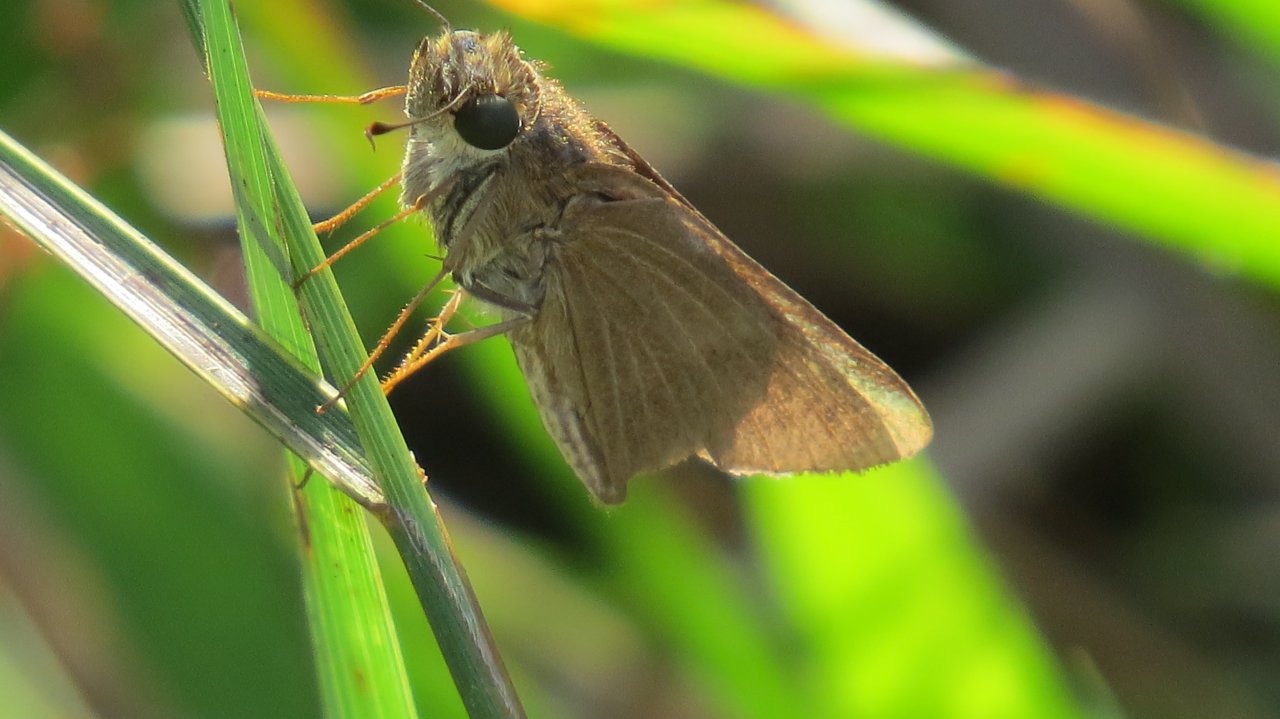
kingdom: Animalia
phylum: Arthropoda
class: Insecta
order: Lepidoptera
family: Hesperiidae
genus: Panoquina
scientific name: Panoquina ocola
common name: Ocola Skipper
